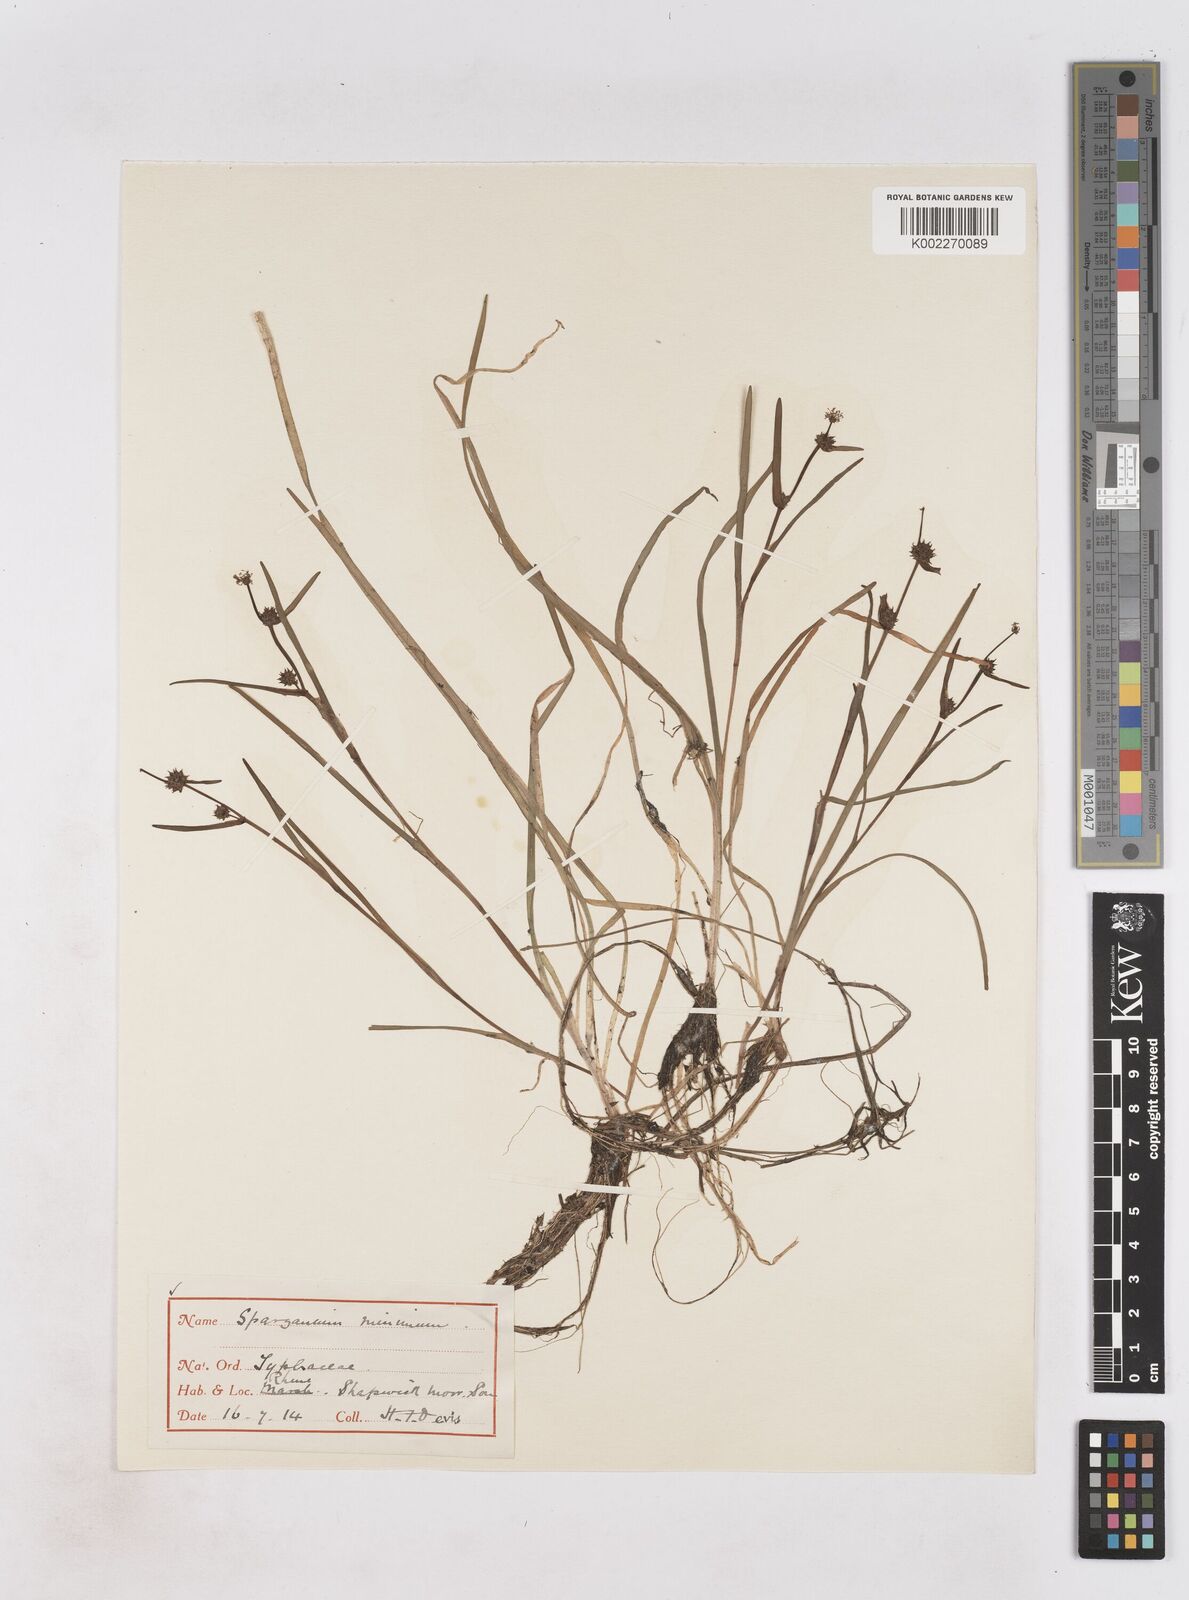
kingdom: Plantae
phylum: Tracheophyta
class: Liliopsida
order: Poales
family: Typhaceae
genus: Sparganium
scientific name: Sparganium natans
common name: Least bur-reed
